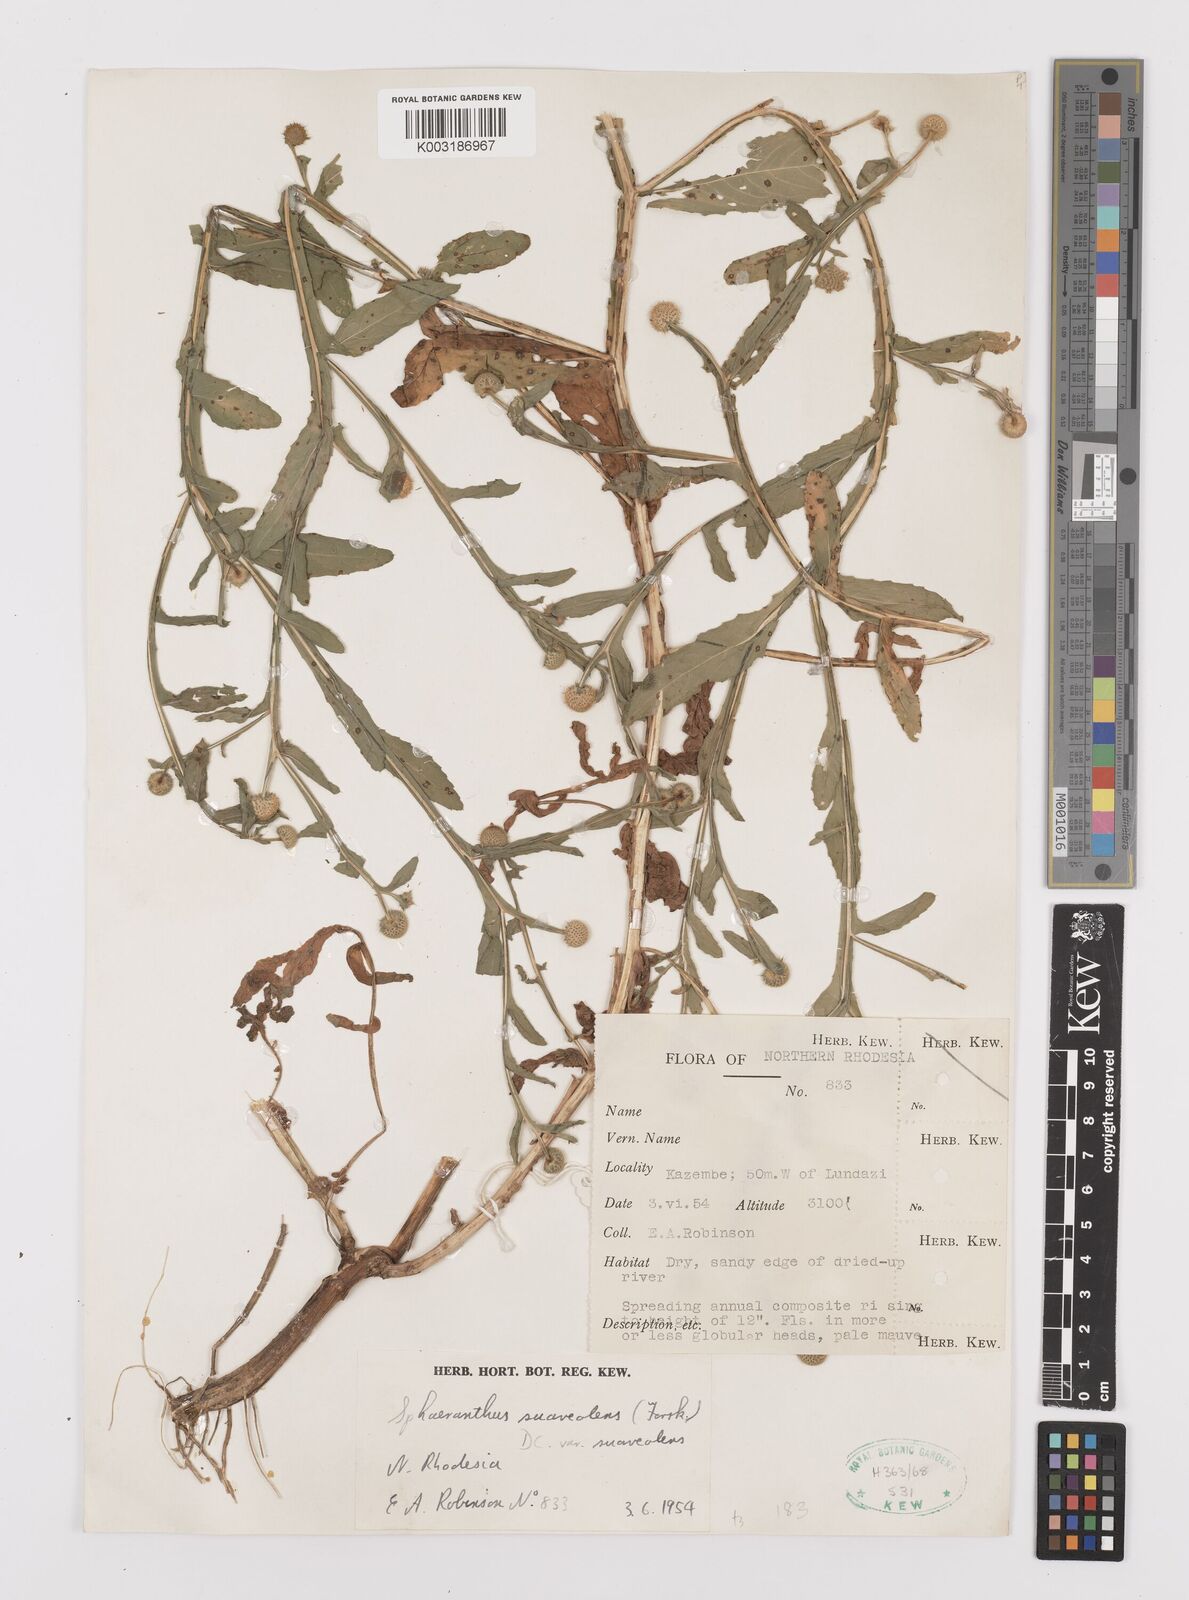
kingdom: Plantae
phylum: Tracheophyta
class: Magnoliopsida
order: Asterales
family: Asteraceae
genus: Sphaeranthus
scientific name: Sphaeranthus talbotii
